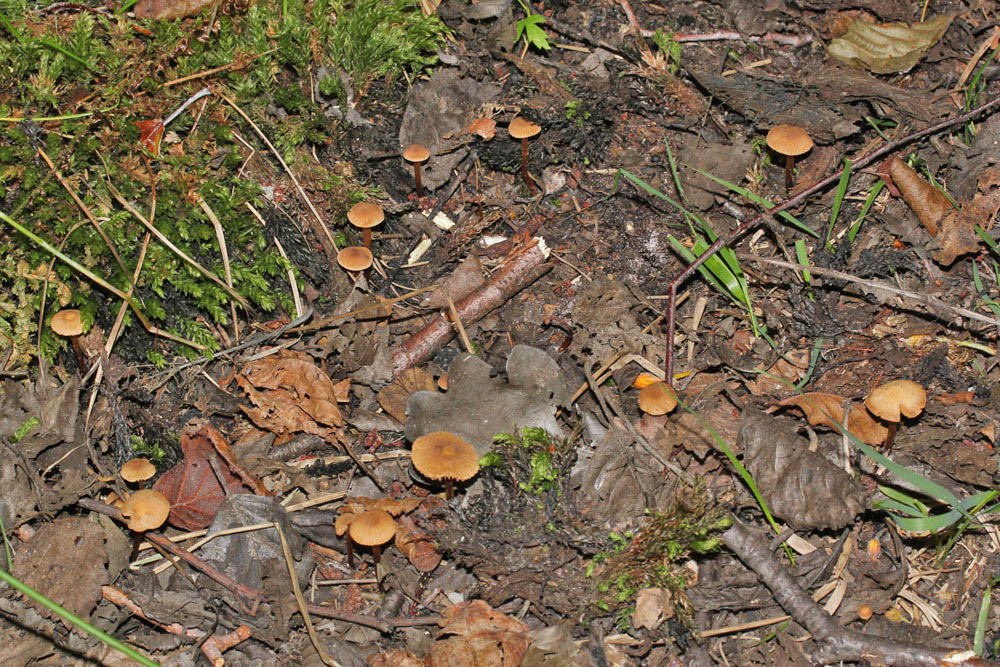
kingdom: Fungi
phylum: Basidiomycota
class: Agaricomycetes
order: Agaricales
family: Hymenogastraceae
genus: Naucoria
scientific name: Naucoria striatula
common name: stribet knaphat
